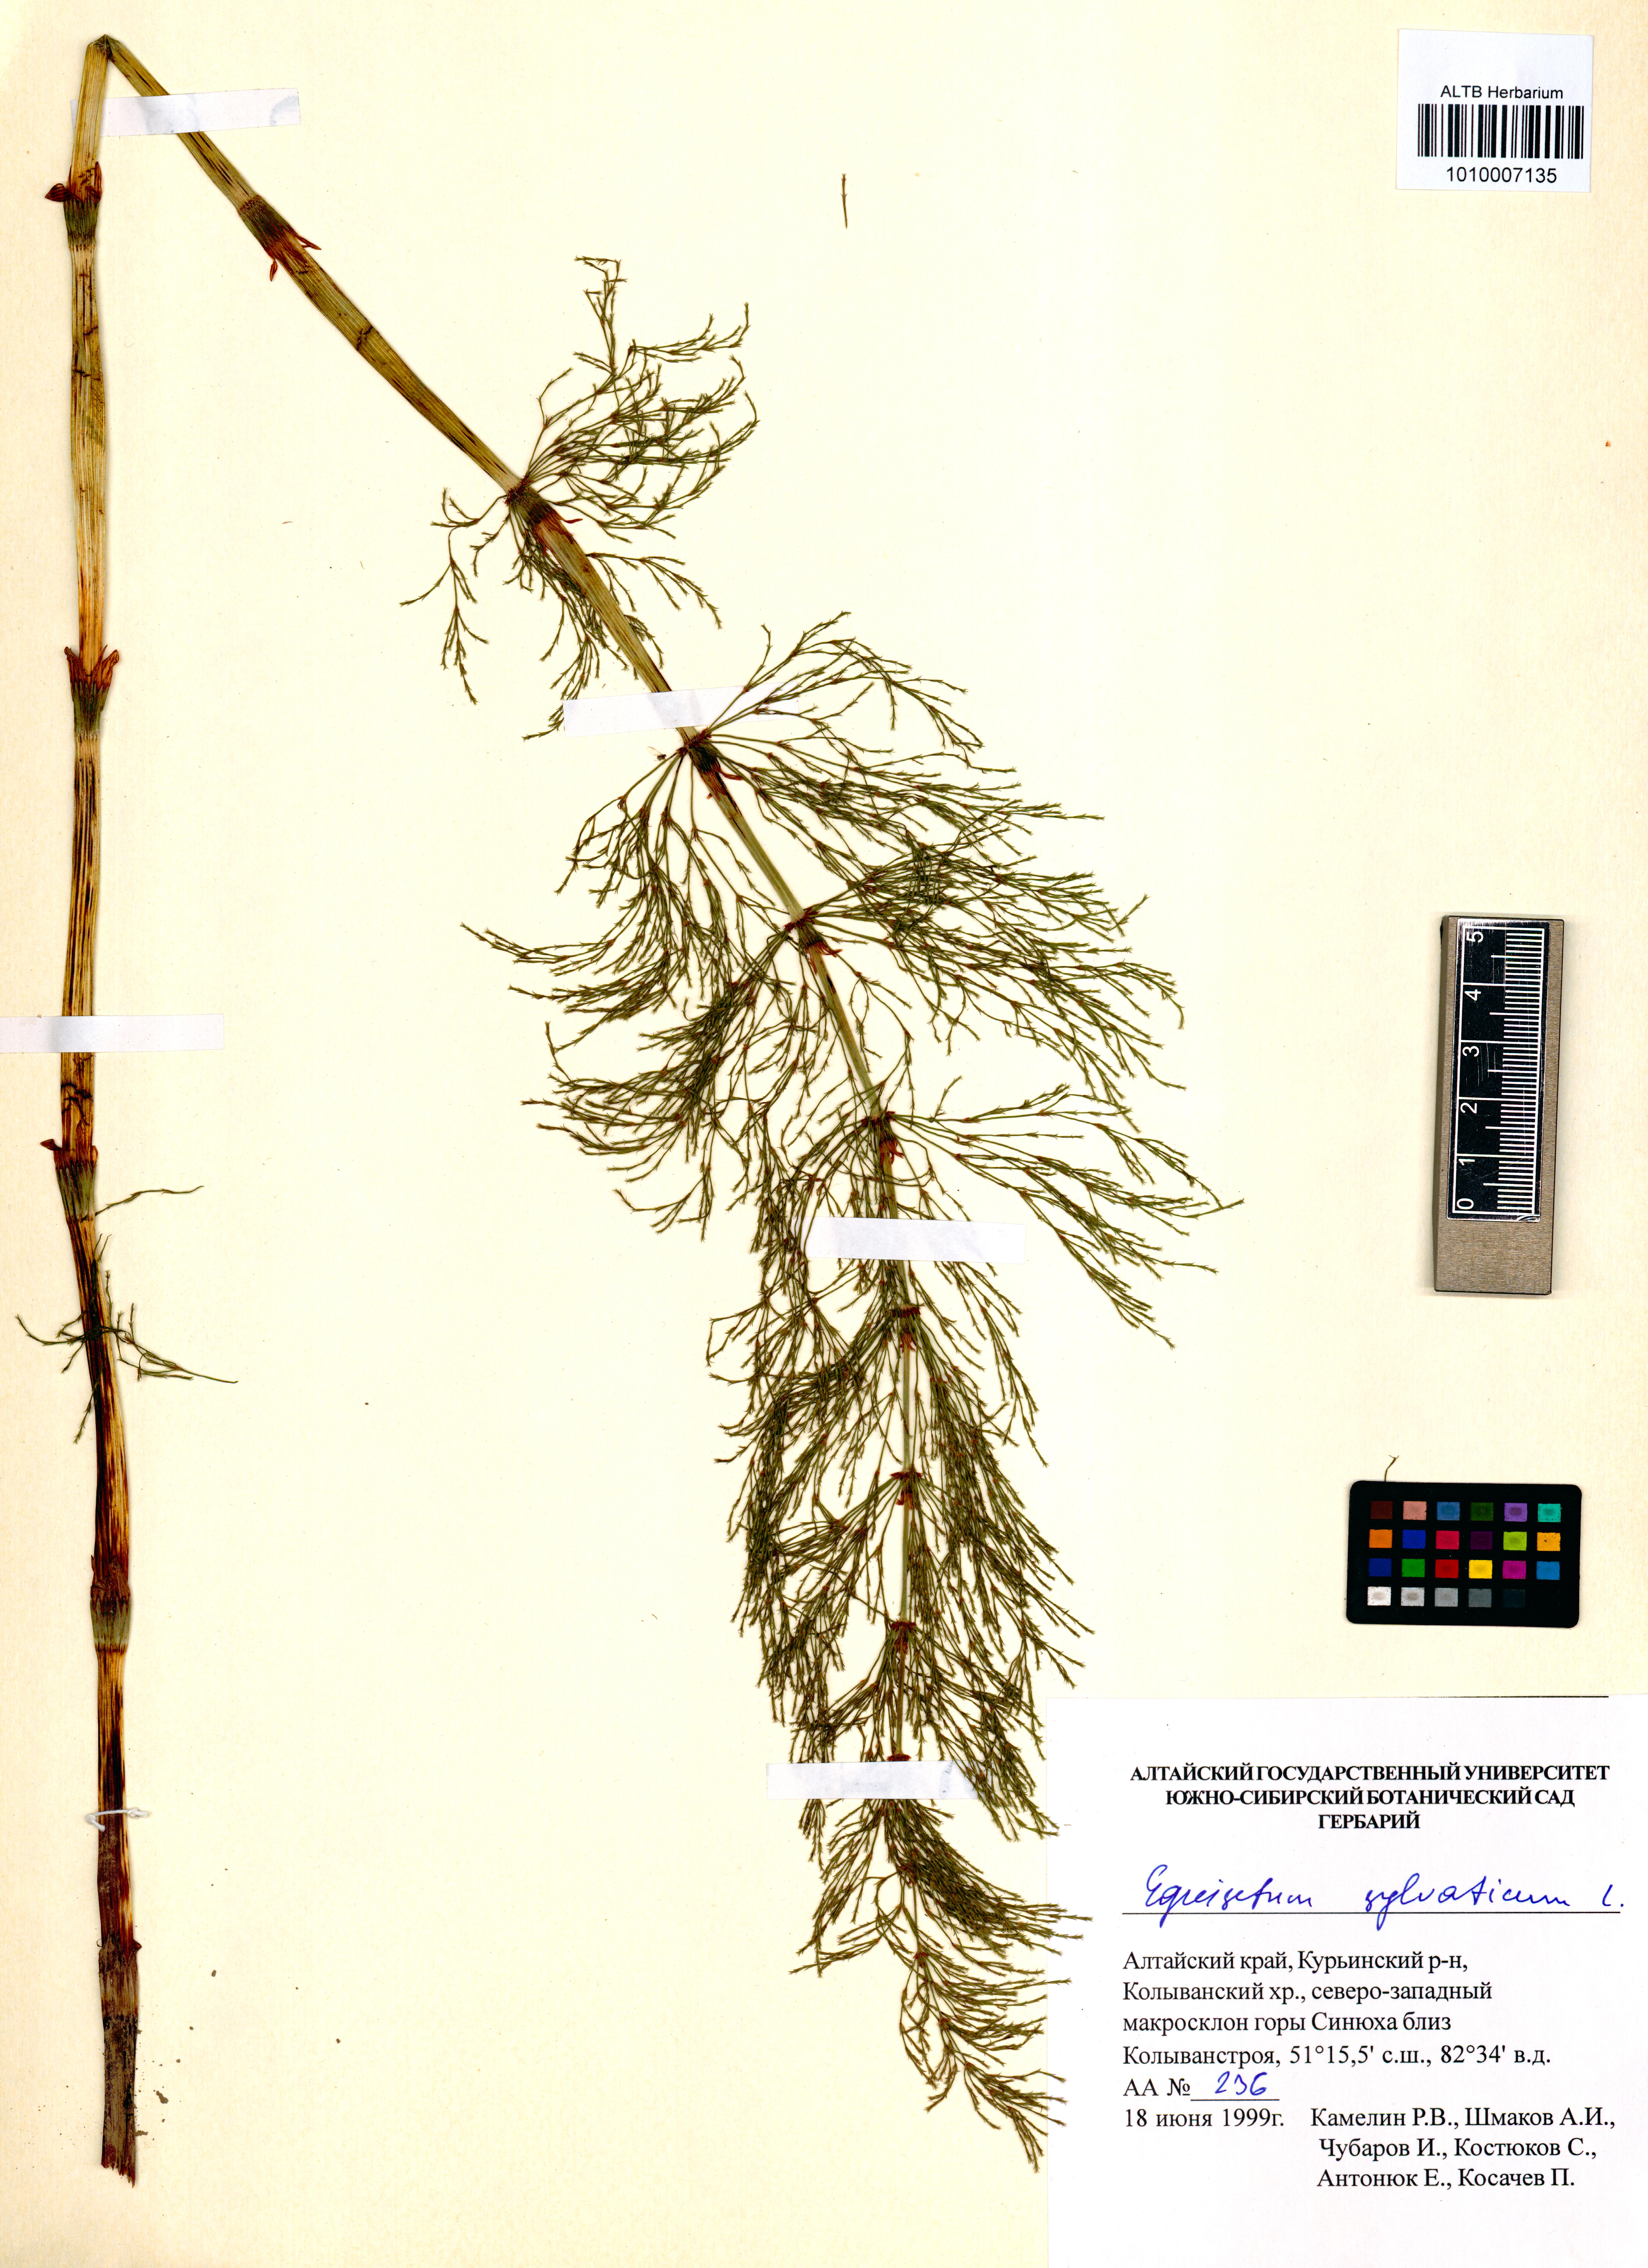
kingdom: Plantae
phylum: Tracheophyta
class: Polypodiopsida
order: Equisetales
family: Equisetaceae
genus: Equisetum
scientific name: Equisetum sylvaticum
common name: Wood horsetail
